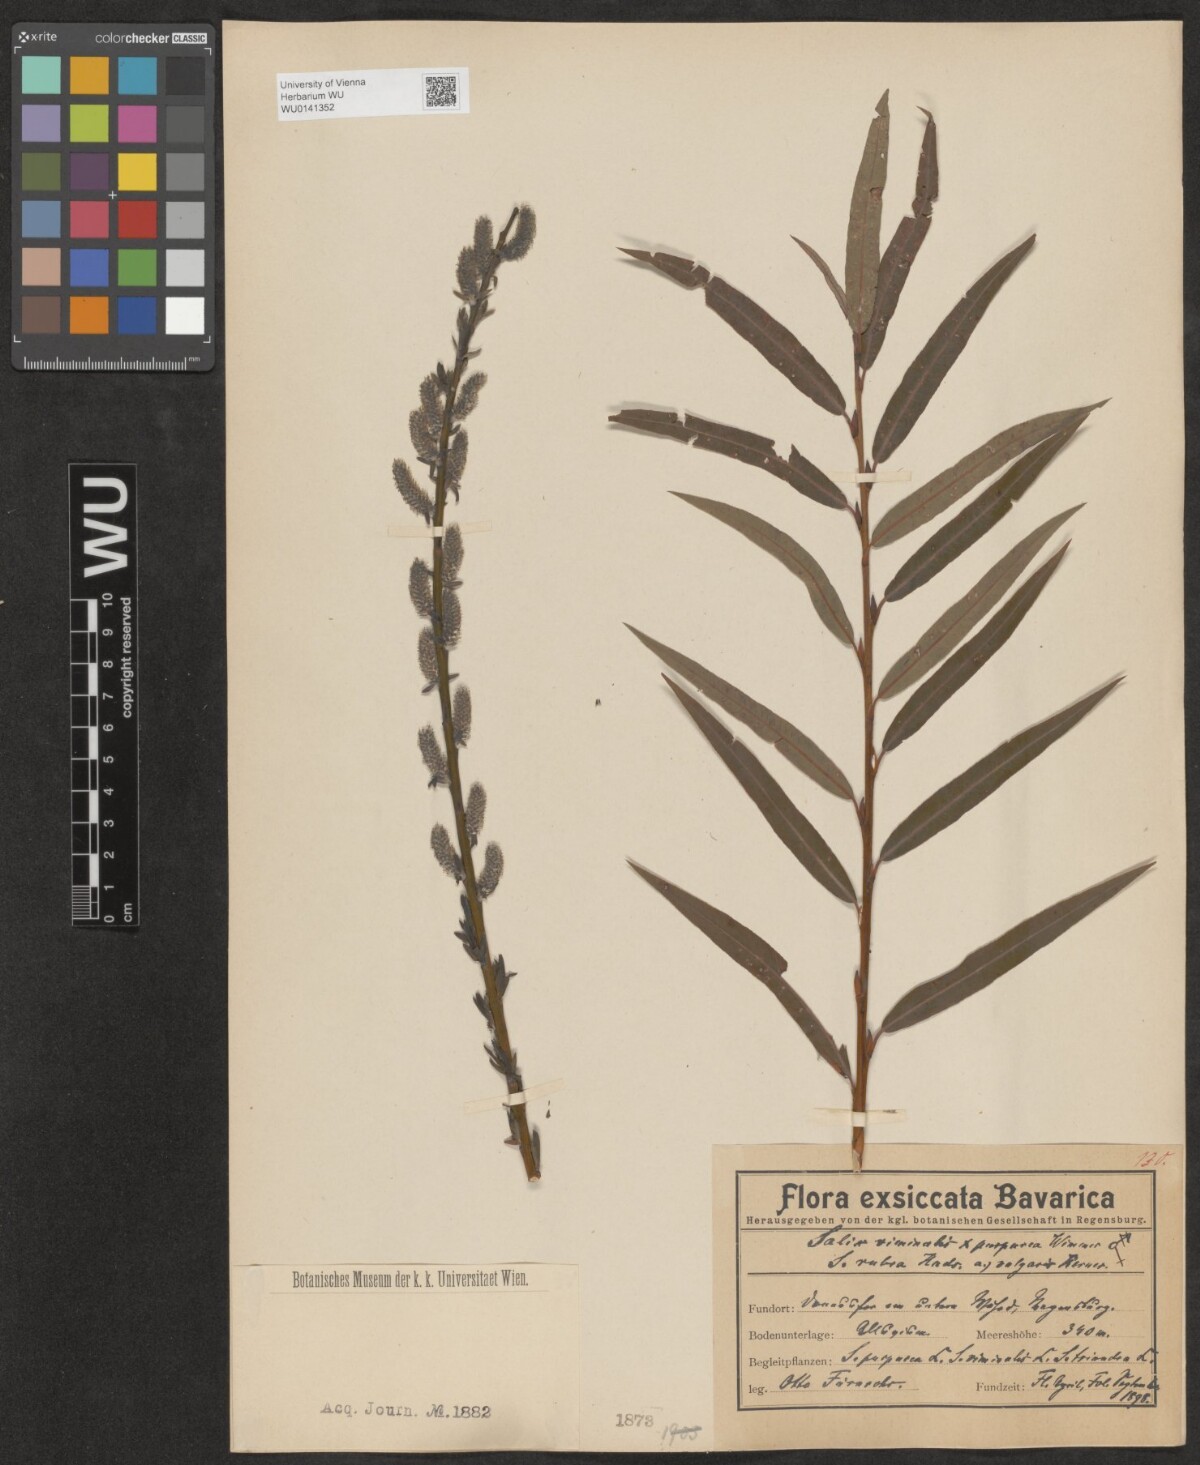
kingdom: Plantae
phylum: Tracheophyta
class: Magnoliopsida
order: Malpighiales
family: Salicaceae
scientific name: Salicaceae
